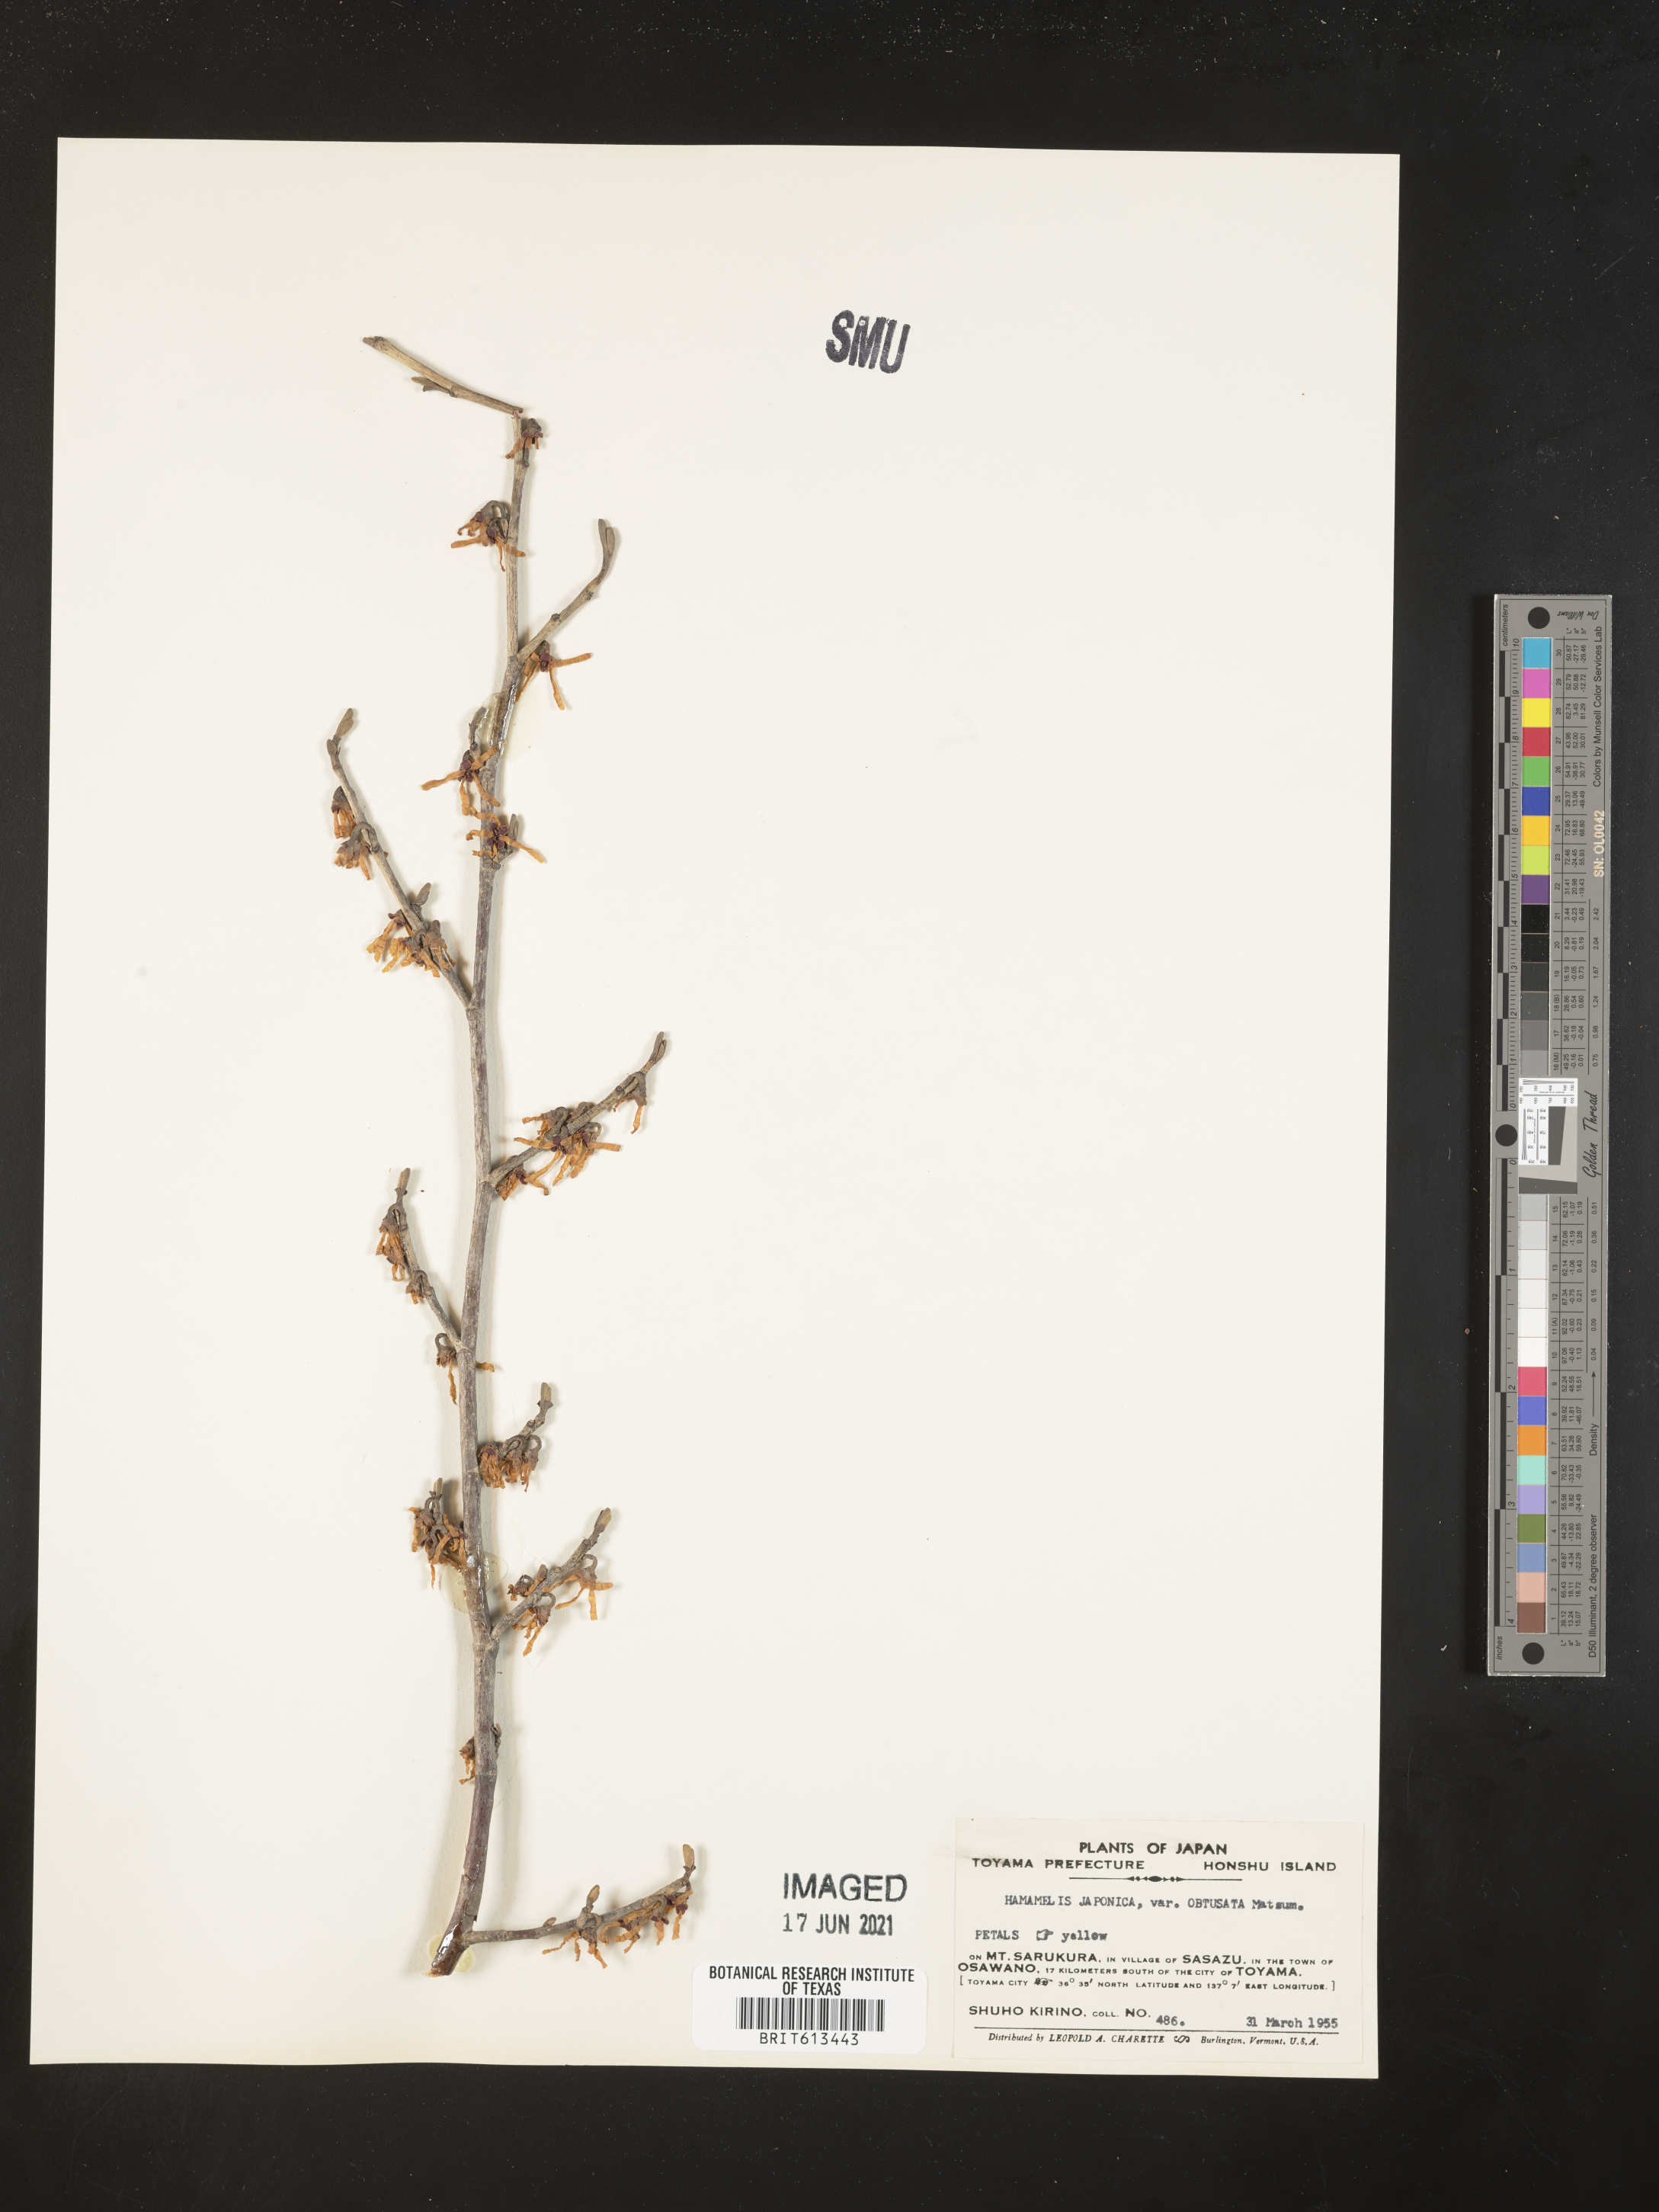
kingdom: Plantae
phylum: Tracheophyta
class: Magnoliopsida
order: Saxifragales
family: Hamamelidaceae
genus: Hamamelis
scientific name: Hamamelis japonica
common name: Japanese witch-hazel
